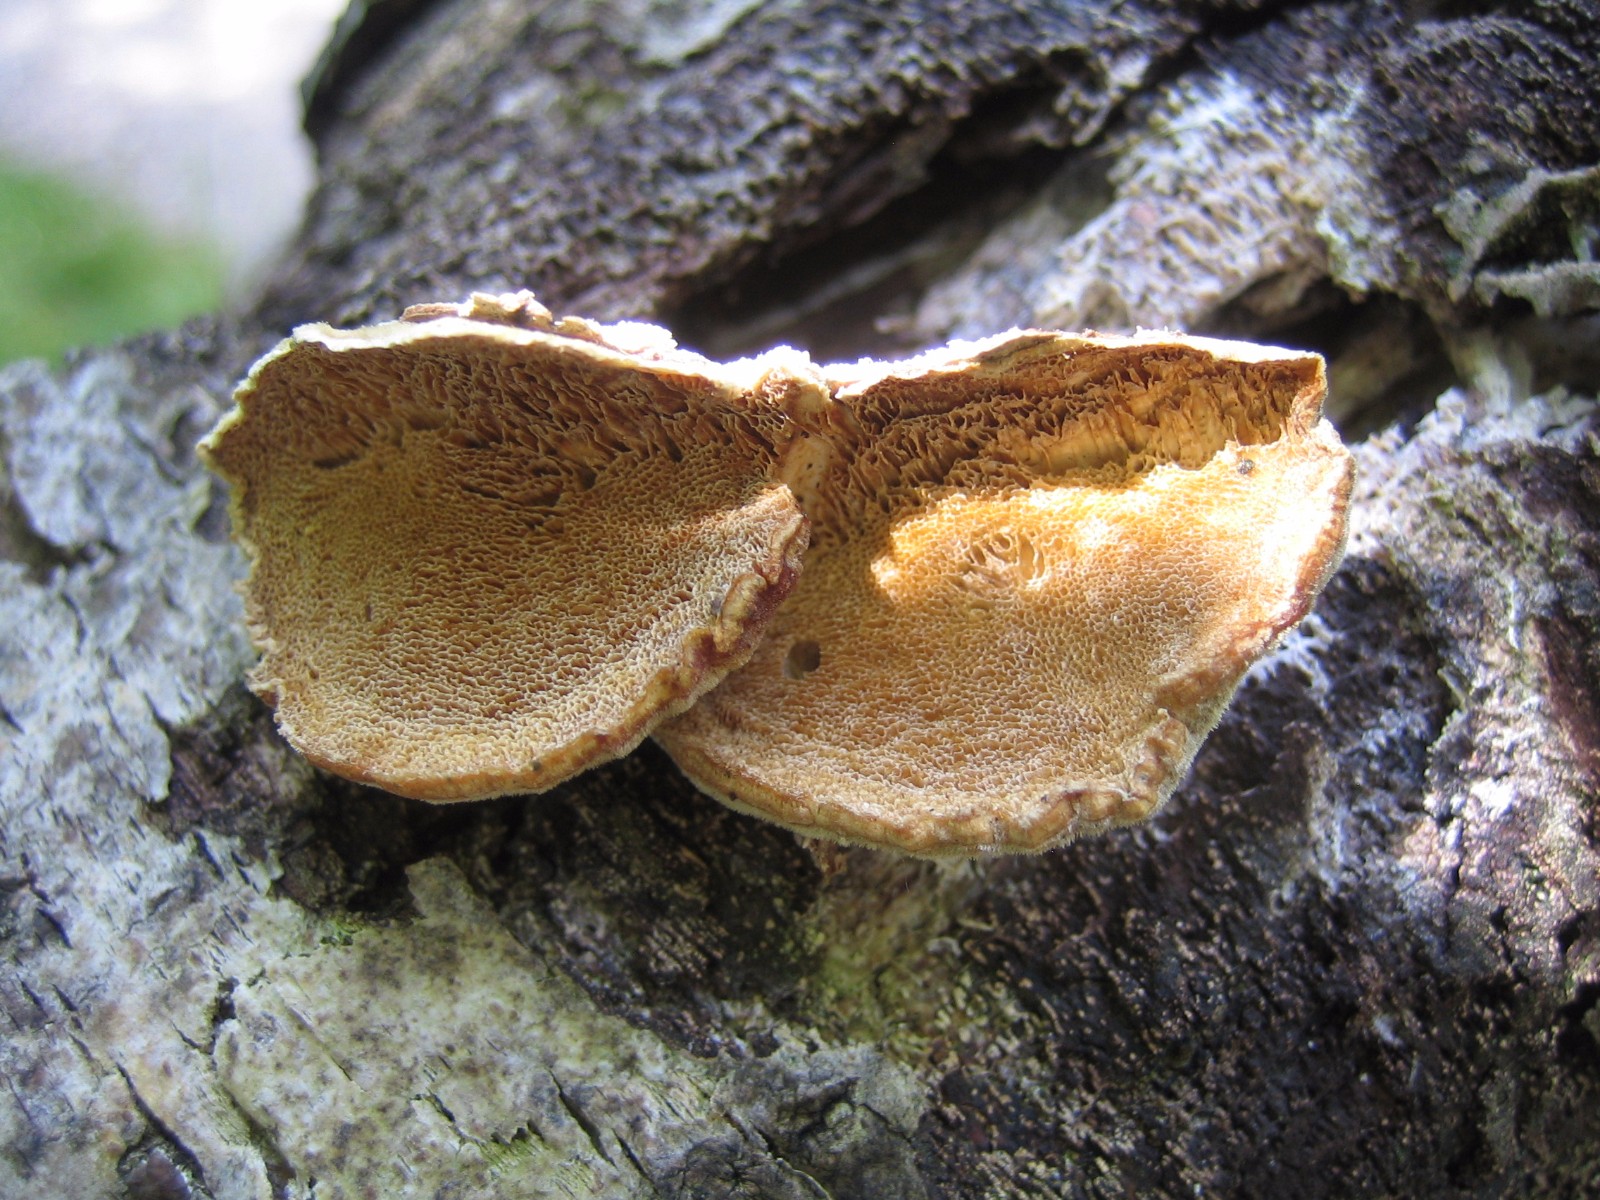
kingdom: Fungi
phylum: Basidiomycota
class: Agaricomycetes
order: Polyporales
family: Polyporaceae
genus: Trametes
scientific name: Trametes
